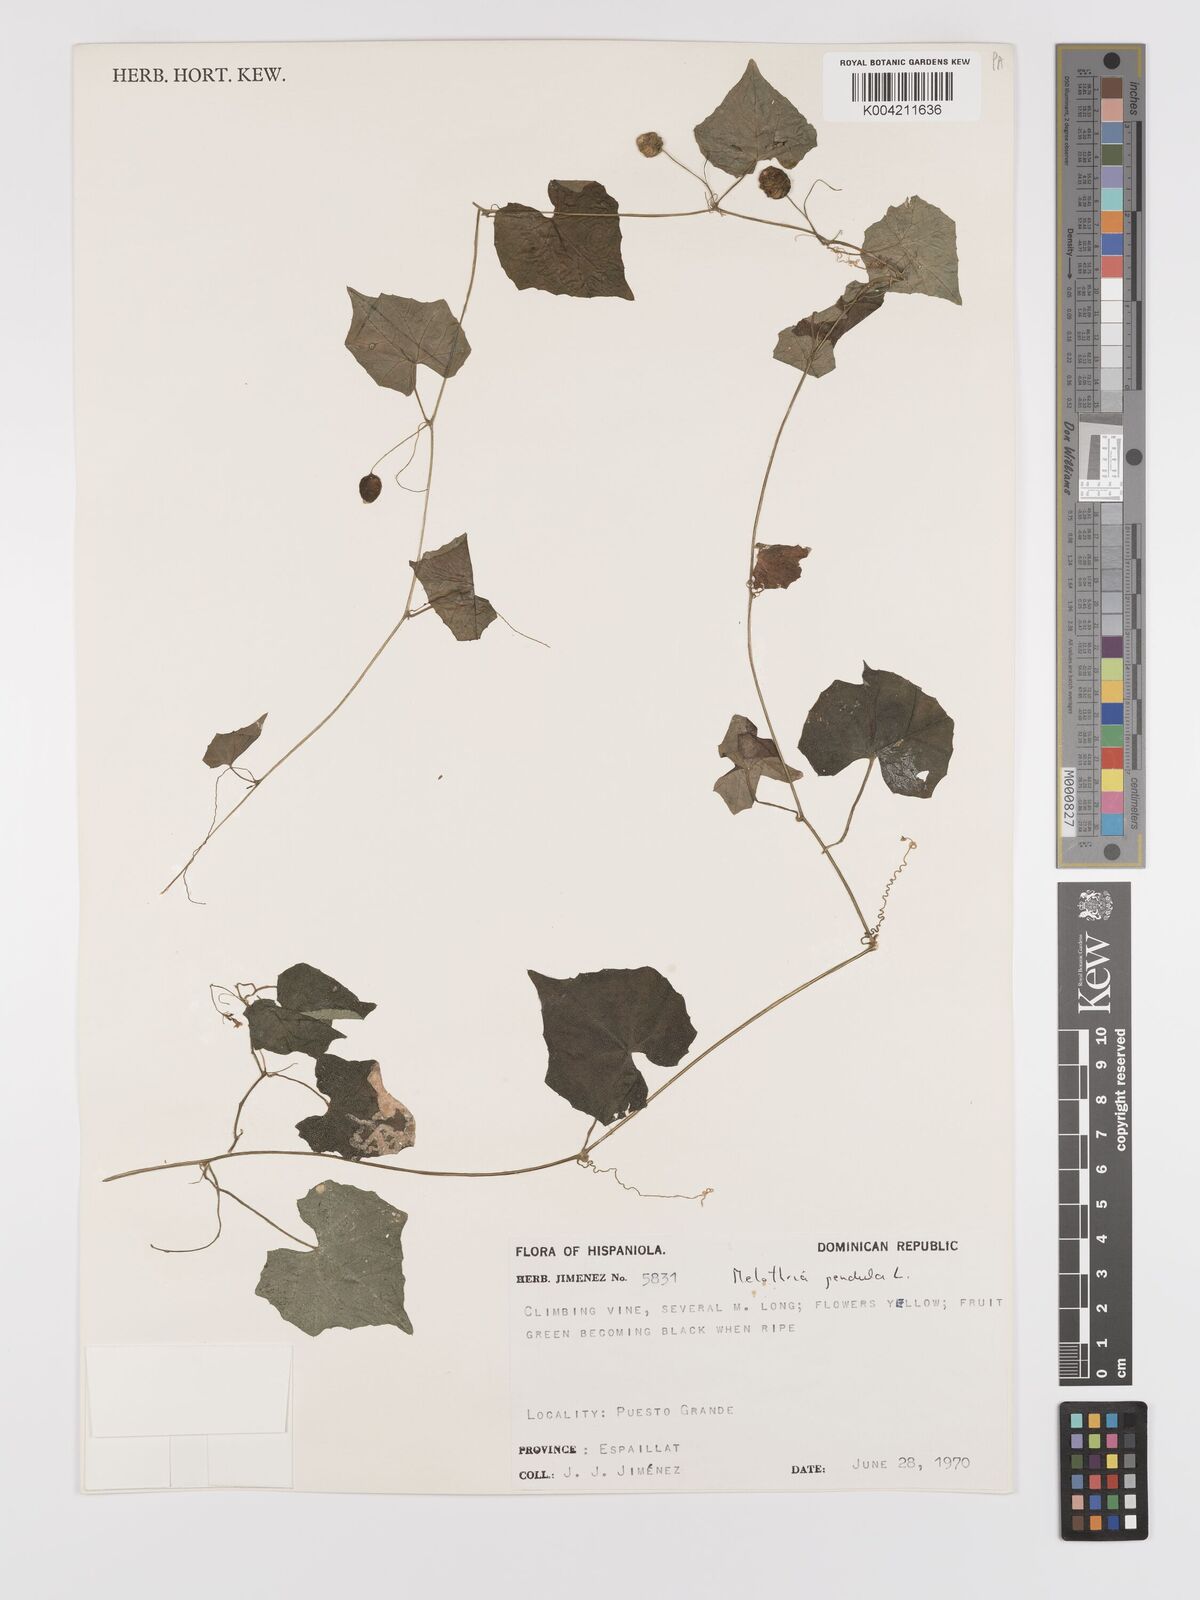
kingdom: Plantae
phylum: Tracheophyta
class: Magnoliopsida
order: Cucurbitales
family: Cucurbitaceae
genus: Melothria
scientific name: Melothria
